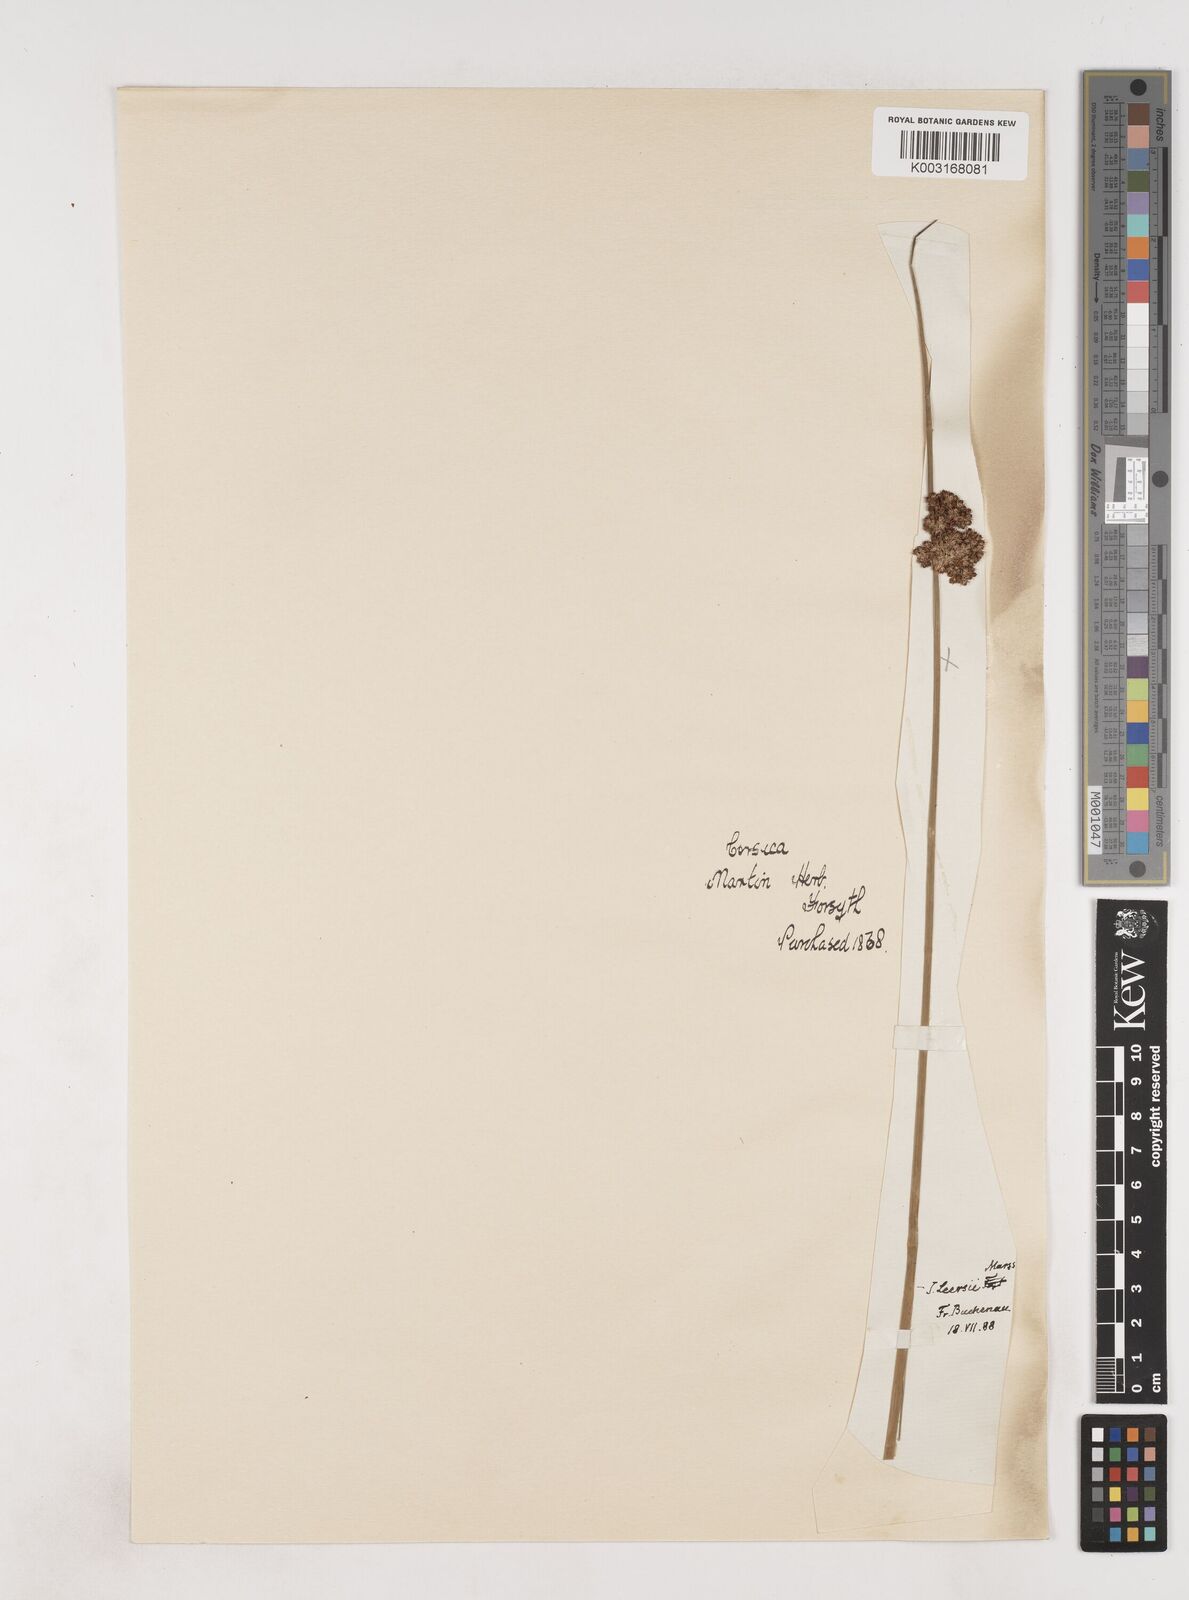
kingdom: Plantae
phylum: Tracheophyta
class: Liliopsida
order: Poales
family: Juncaceae
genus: Juncus
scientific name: Juncus conglomeratus
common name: Compact rush
